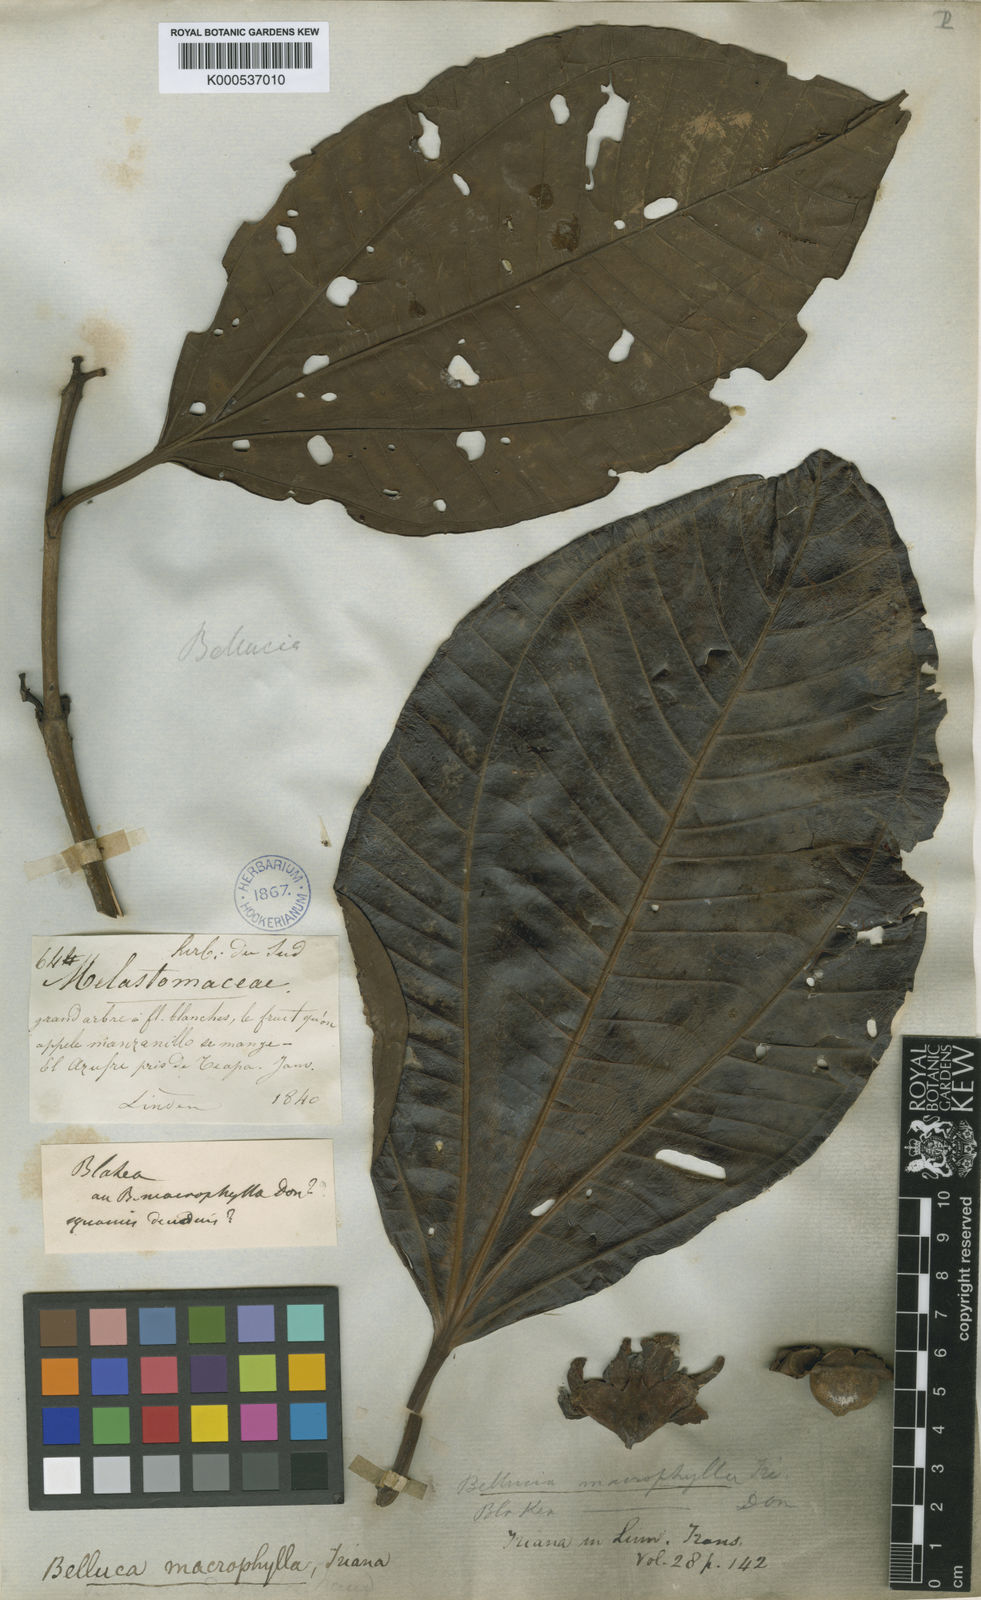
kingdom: Plantae
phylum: Tracheophyta
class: Magnoliopsida
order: Myrtales
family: Melastomataceae
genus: Bellucia
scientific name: Bellucia grossularioides
